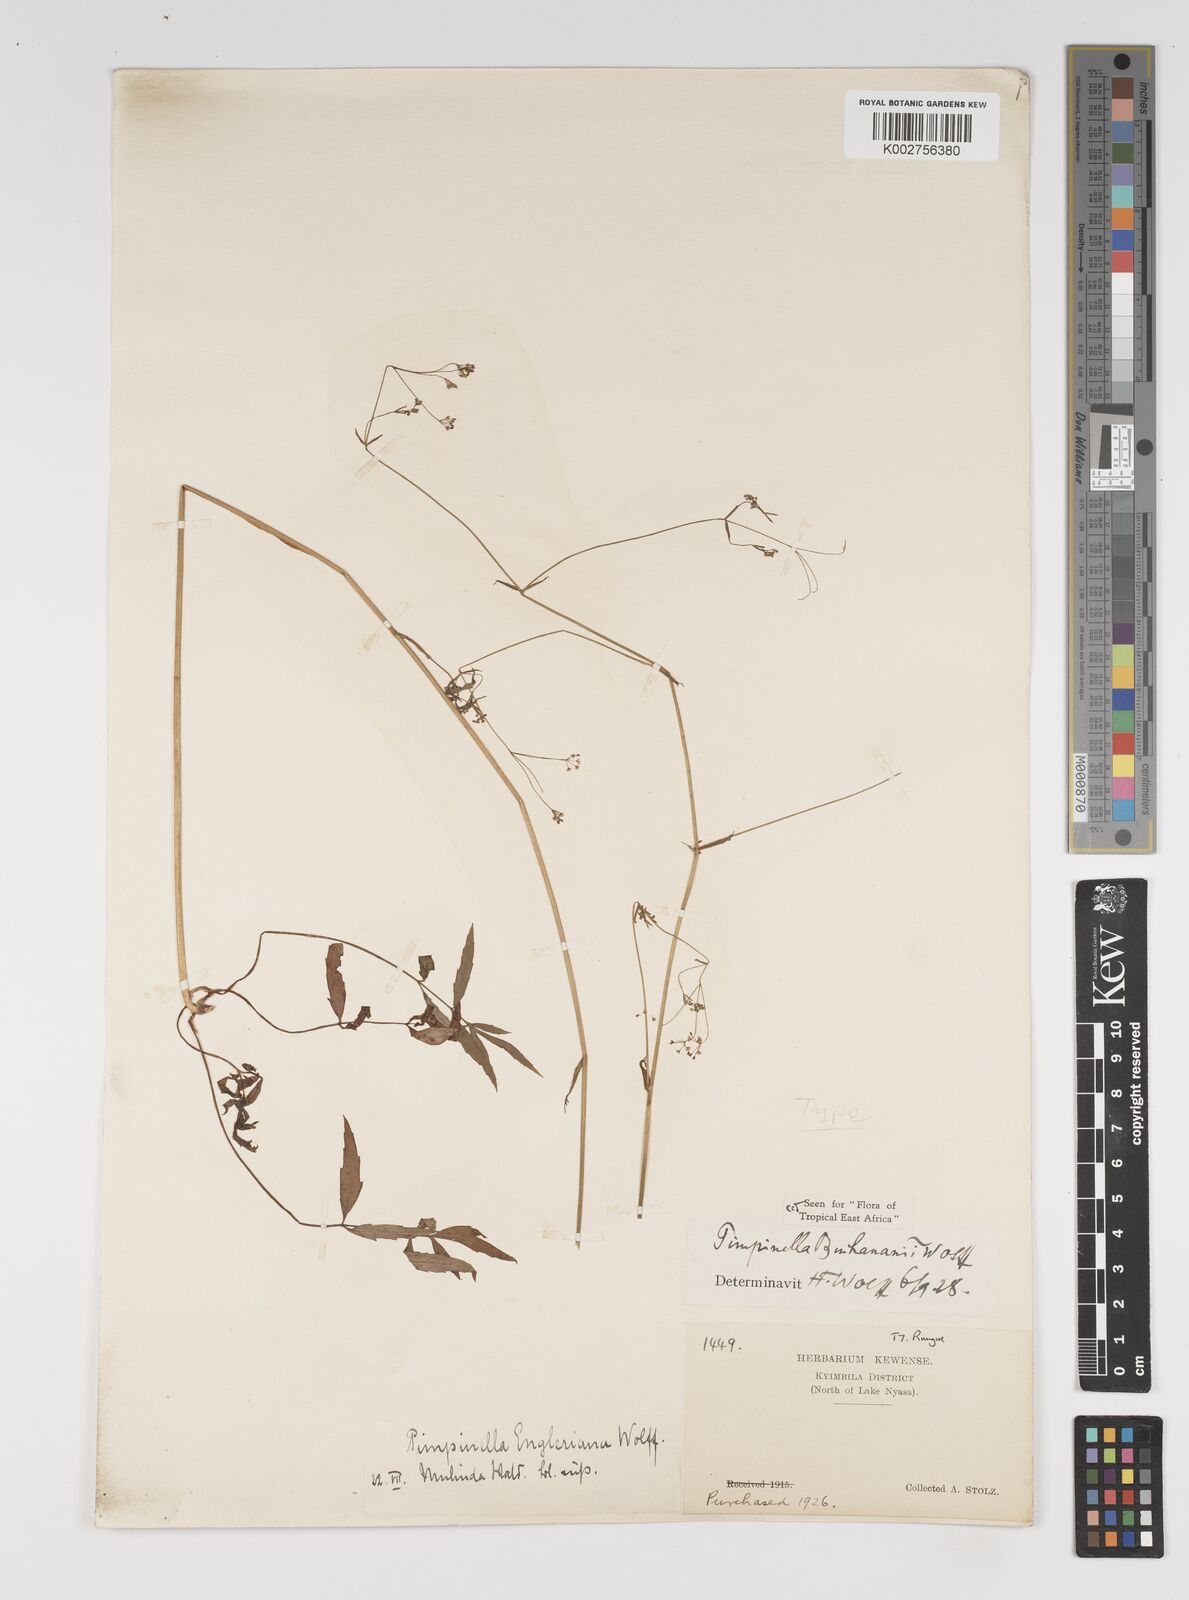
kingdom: Plantae
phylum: Tracheophyta
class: Magnoliopsida
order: Apiales
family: Apiaceae
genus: Pimpinella
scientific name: Pimpinella buchananii
